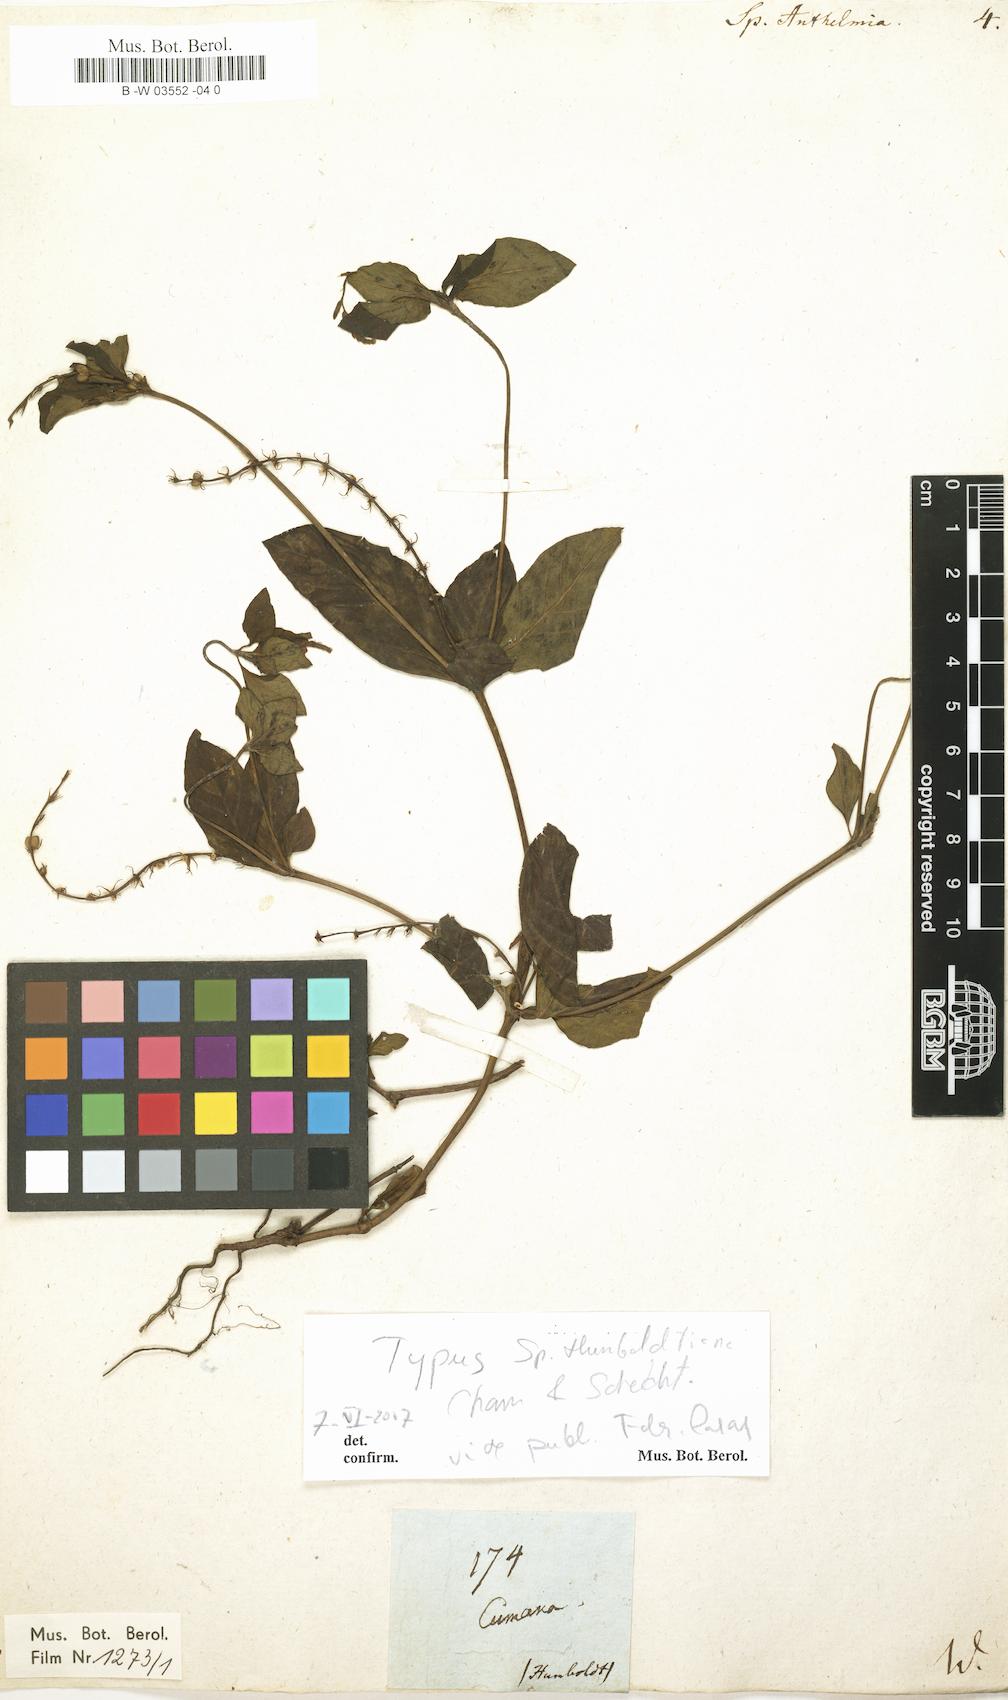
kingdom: Plantae
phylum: Tracheophyta
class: Magnoliopsida
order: Gentianales
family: Loganiaceae
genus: Spigelia
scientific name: Spigelia anthelmia
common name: West indian-pink
